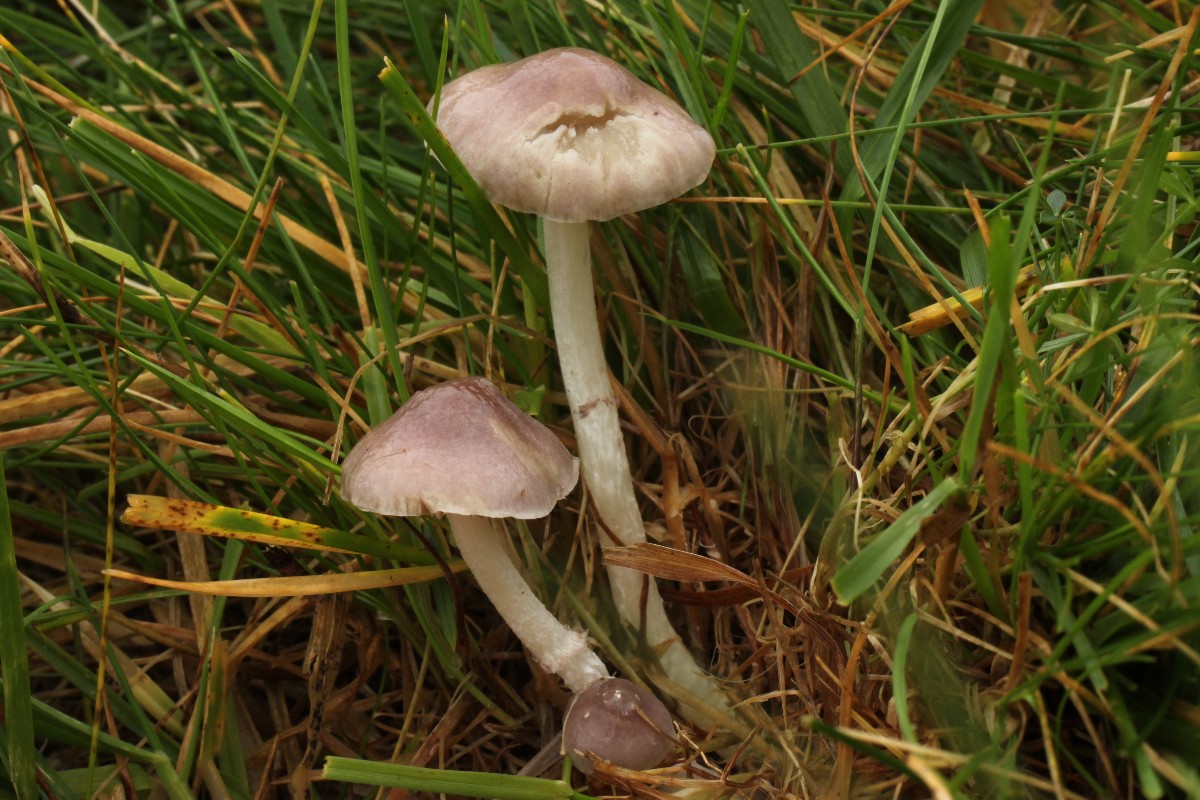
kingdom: Fungi
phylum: Basidiomycota
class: Agaricomycetes
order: Agaricales
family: Strophariaceae
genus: Stropharia
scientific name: Stropharia inuncta
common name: lillabrun bredblad
